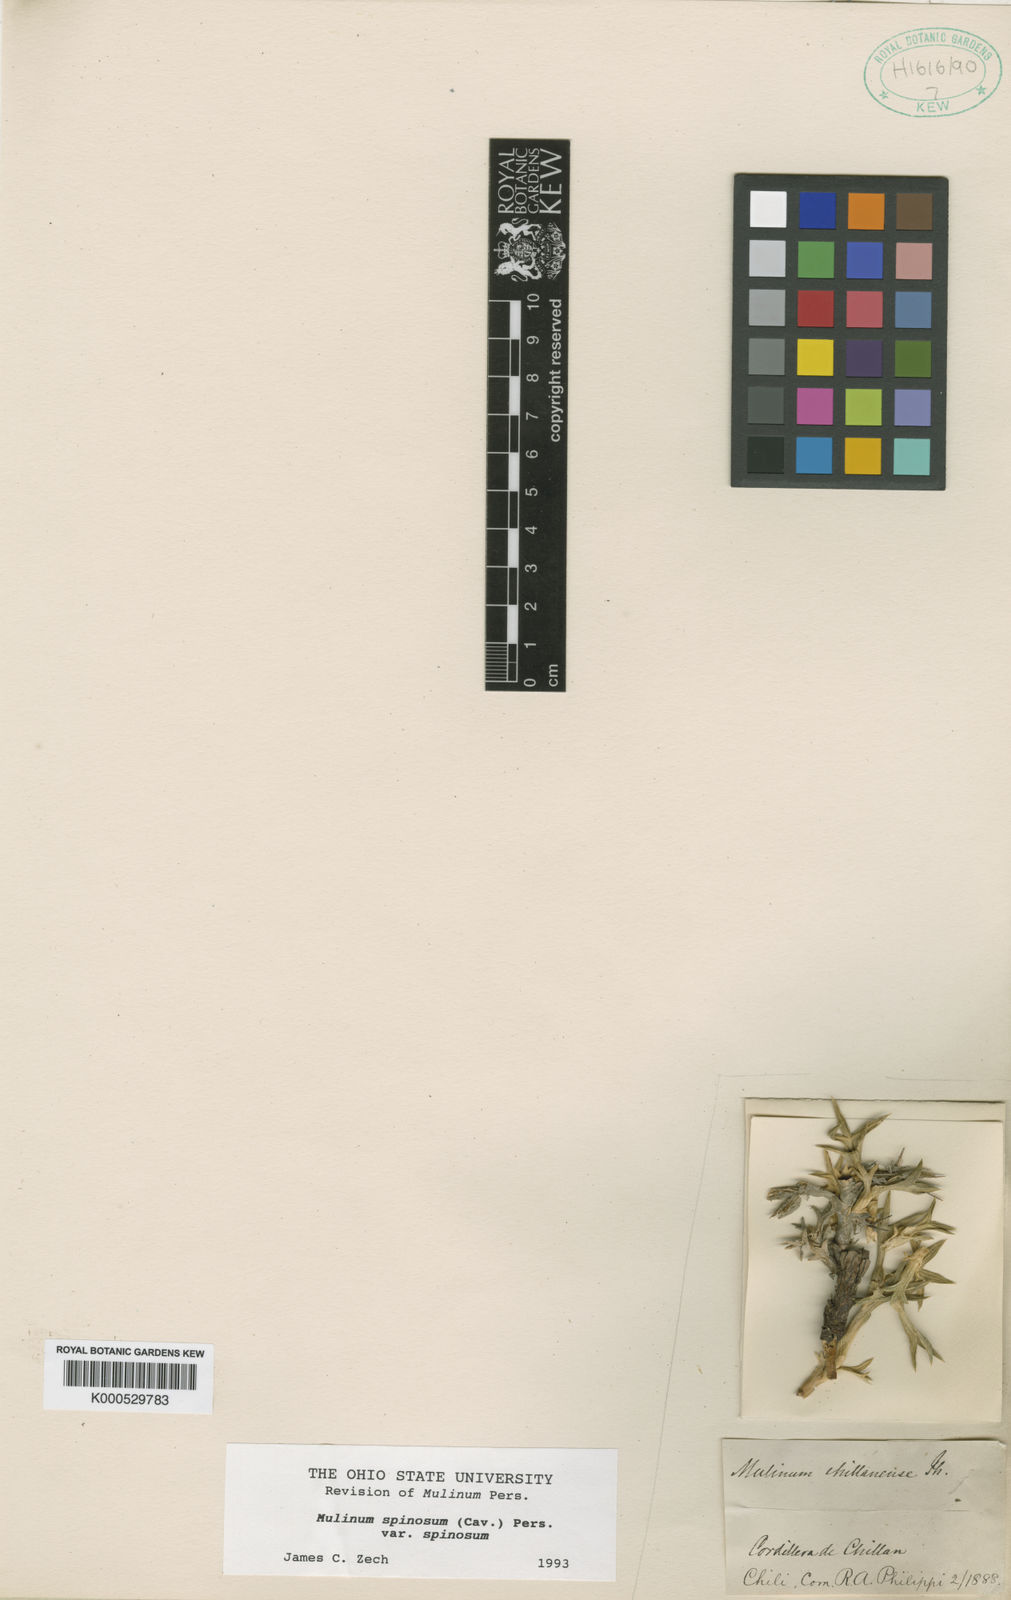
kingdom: Plantae
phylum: Tracheophyta
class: Magnoliopsida
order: Apiales
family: Apiaceae
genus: Azorella
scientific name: Azorella prolifera
